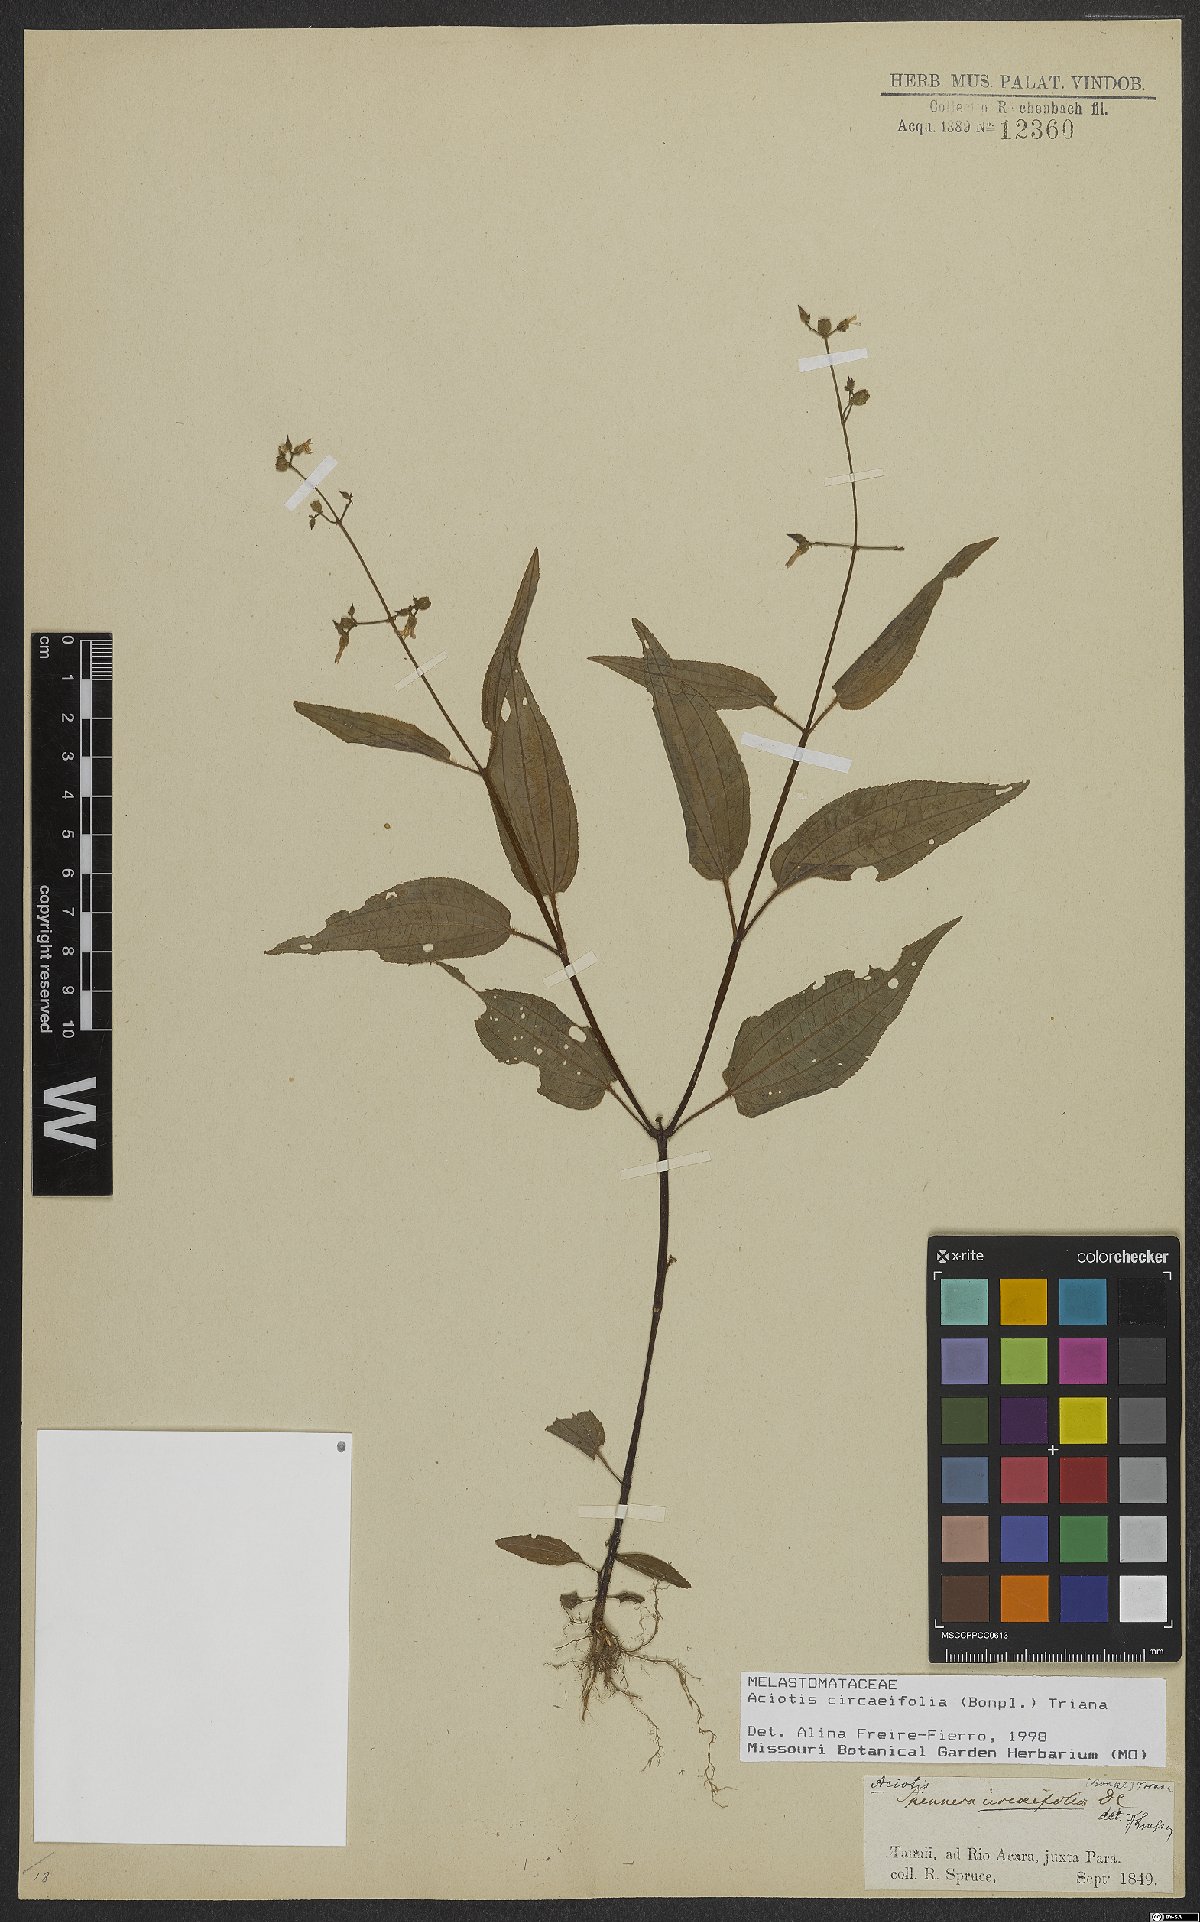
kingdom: Plantae
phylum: Tracheophyta
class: Magnoliopsida
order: Myrtales
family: Melastomataceae
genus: Aciotis
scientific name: Aciotis circaeifolia
